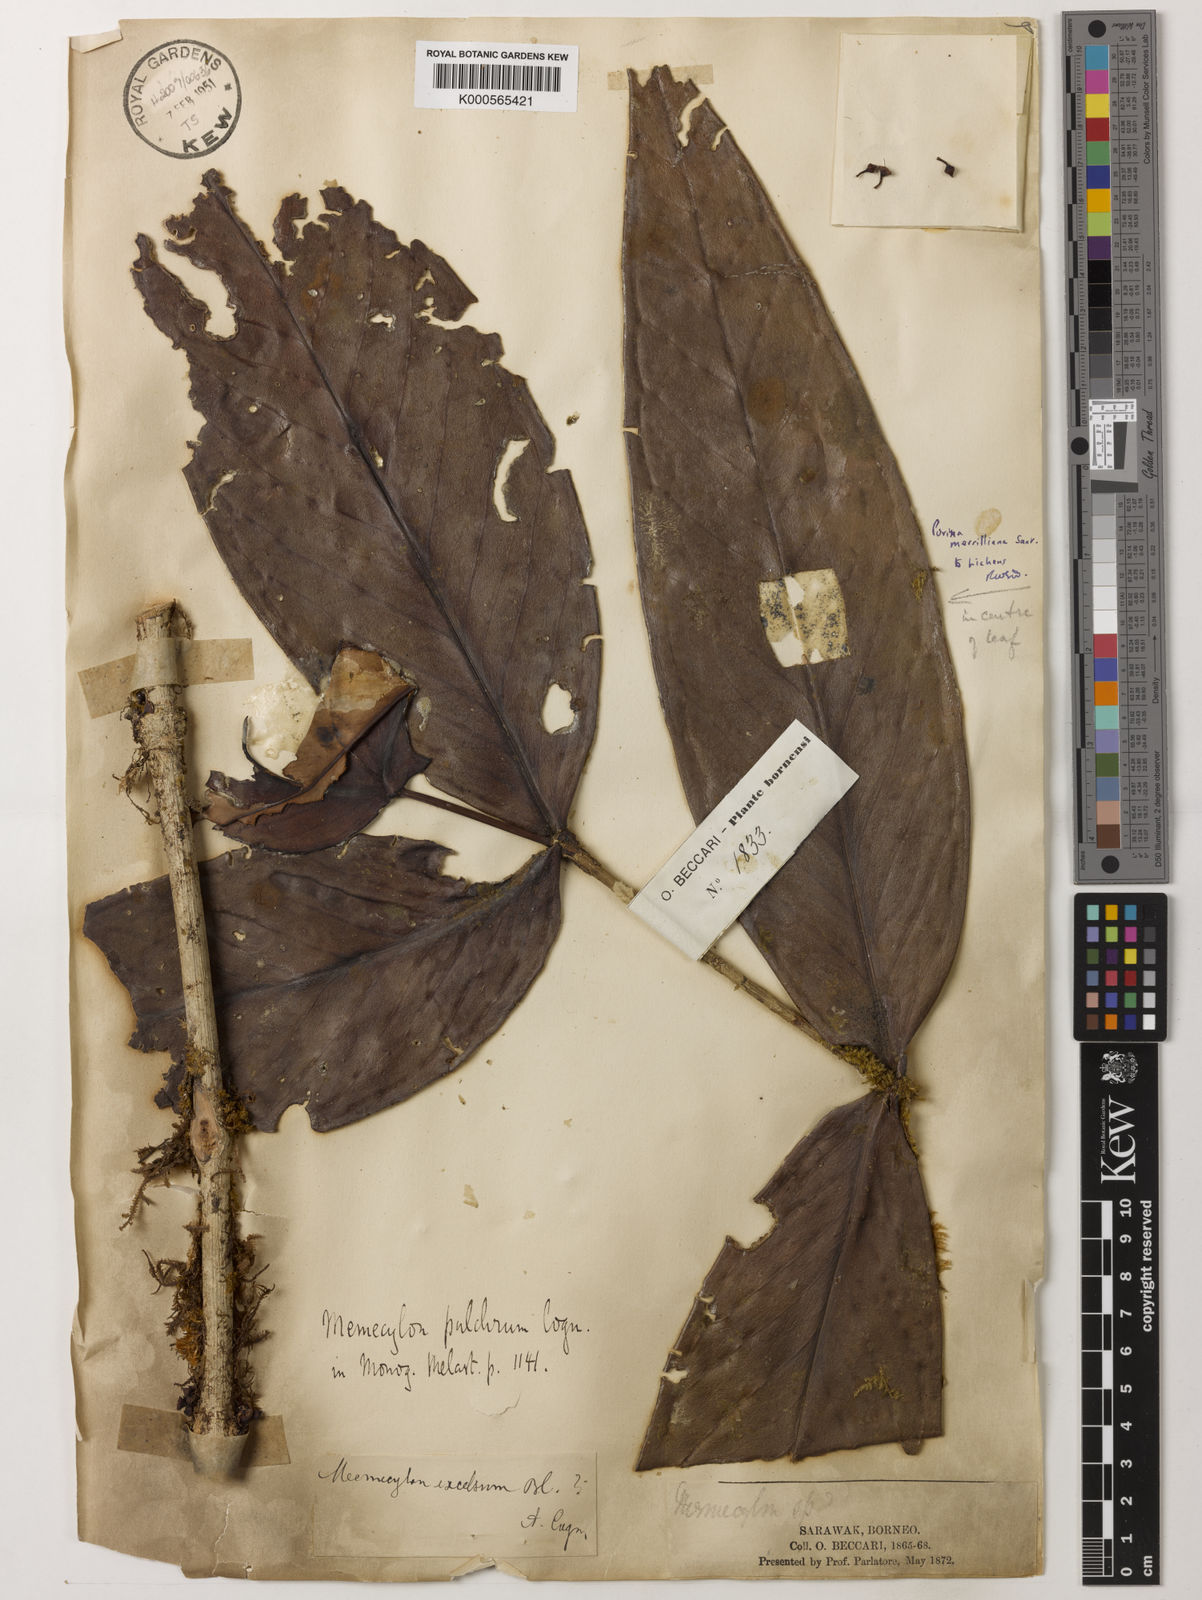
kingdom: Plantae
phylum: Tracheophyta
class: Magnoliopsida
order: Myrtales
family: Melastomataceae
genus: Memecylon
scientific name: Memecylon megacarpum
